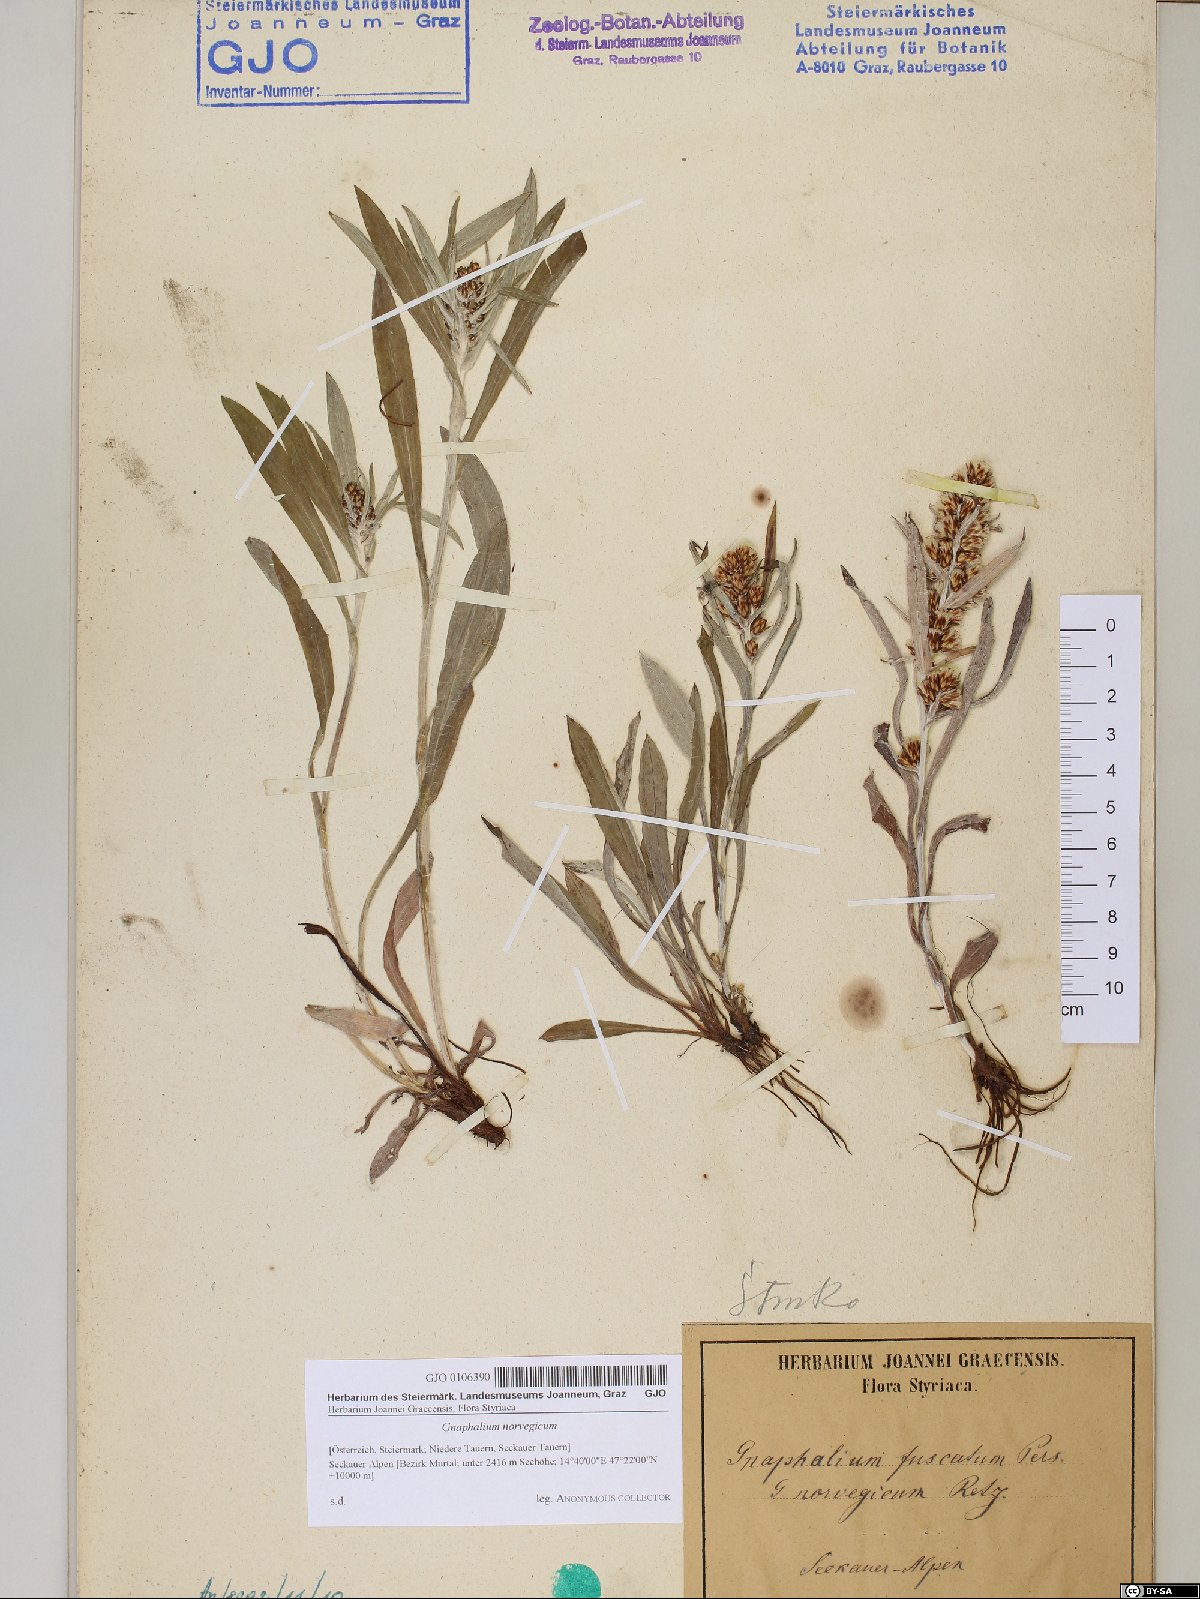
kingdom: Plantae
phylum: Tracheophyta
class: Magnoliopsida
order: Asterales
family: Asteraceae
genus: Omalotheca
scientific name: Omalotheca norvegica
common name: Norwegian arctic-cudweed
